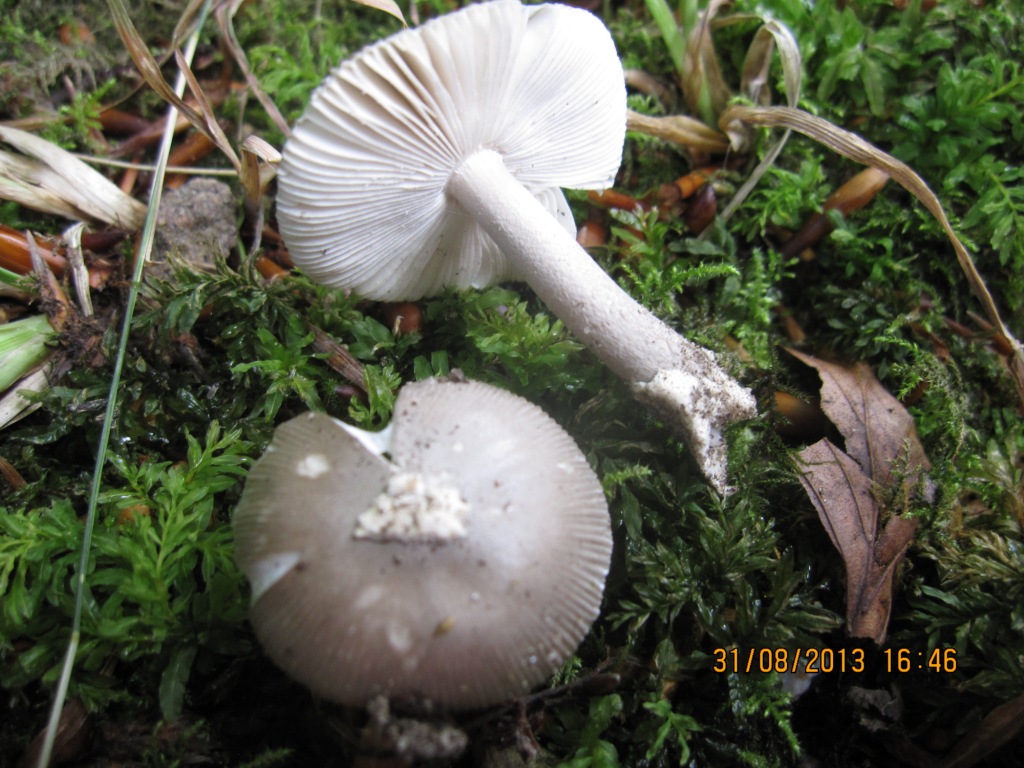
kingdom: Fungi
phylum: Basidiomycota
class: Agaricomycetes
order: Agaricales
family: Amanitaceae
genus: Amanita
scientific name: Amanita vaginata
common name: grå kam-fluesvamp
